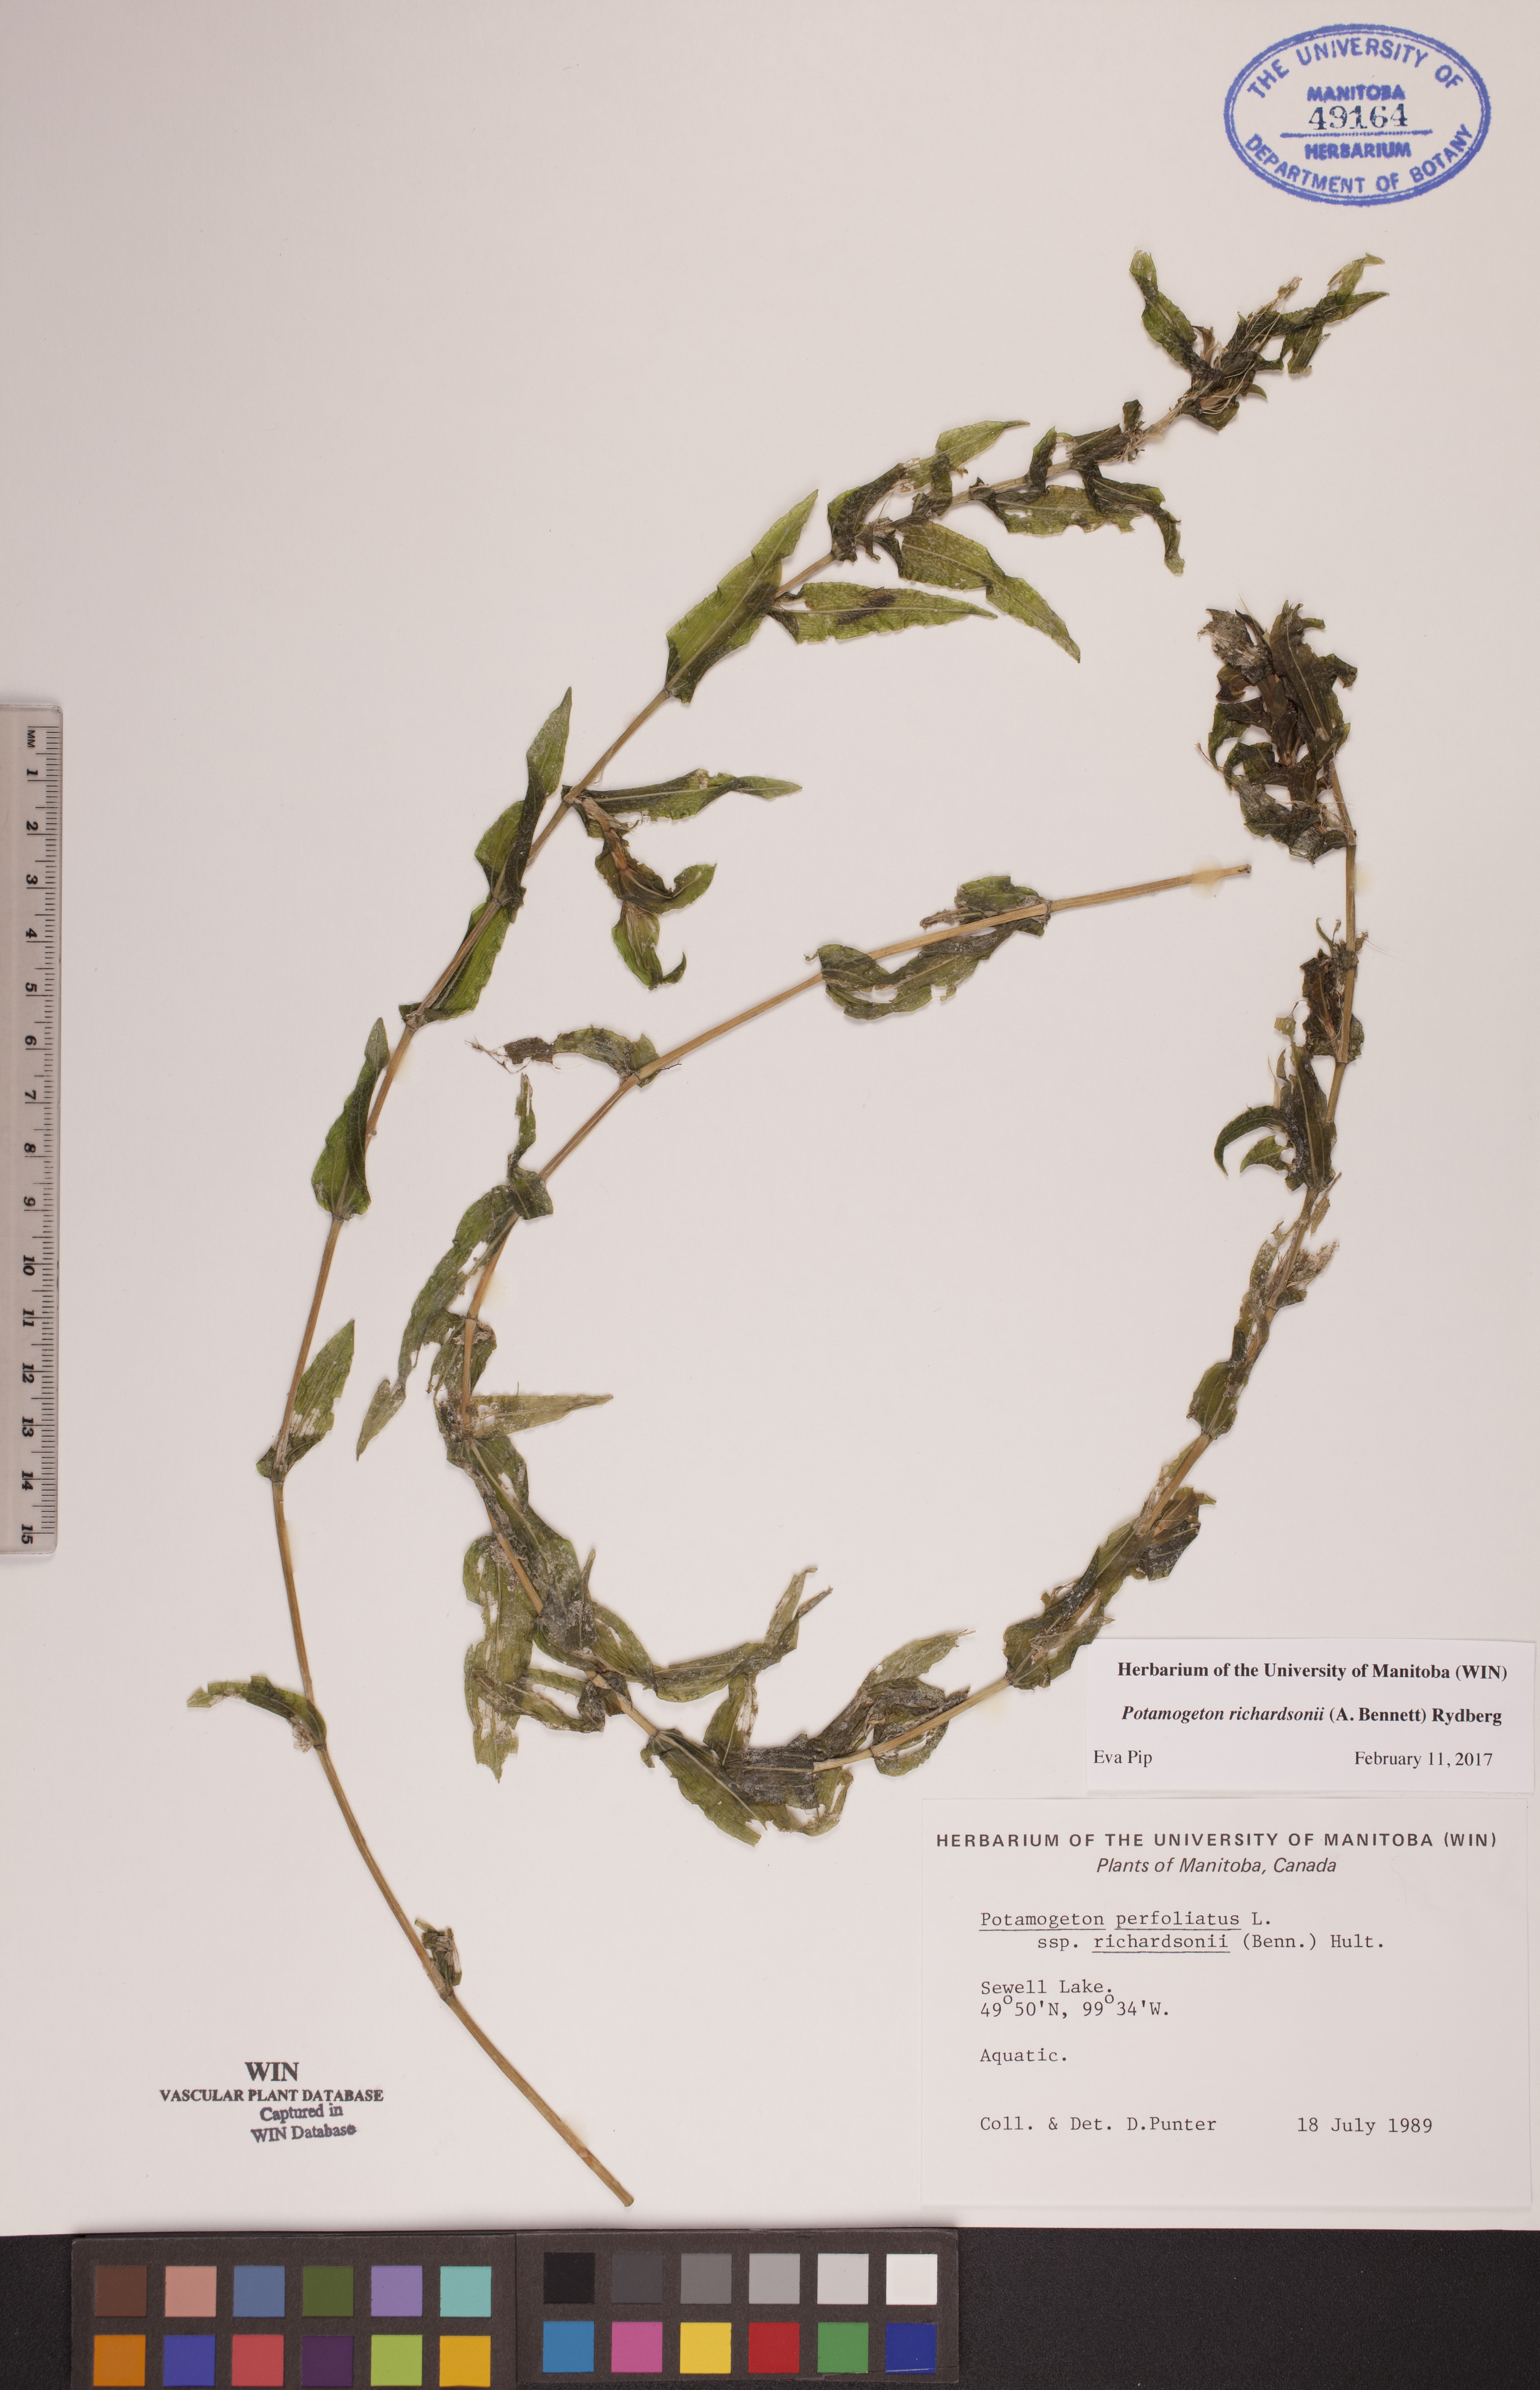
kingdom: Plantae
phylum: Tracheophyta
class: Liliopsida
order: Alismatales
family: Potamogetonaceae
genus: Potamogeton
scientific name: Potamogeton richardsonii
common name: Richardson's pondweed
